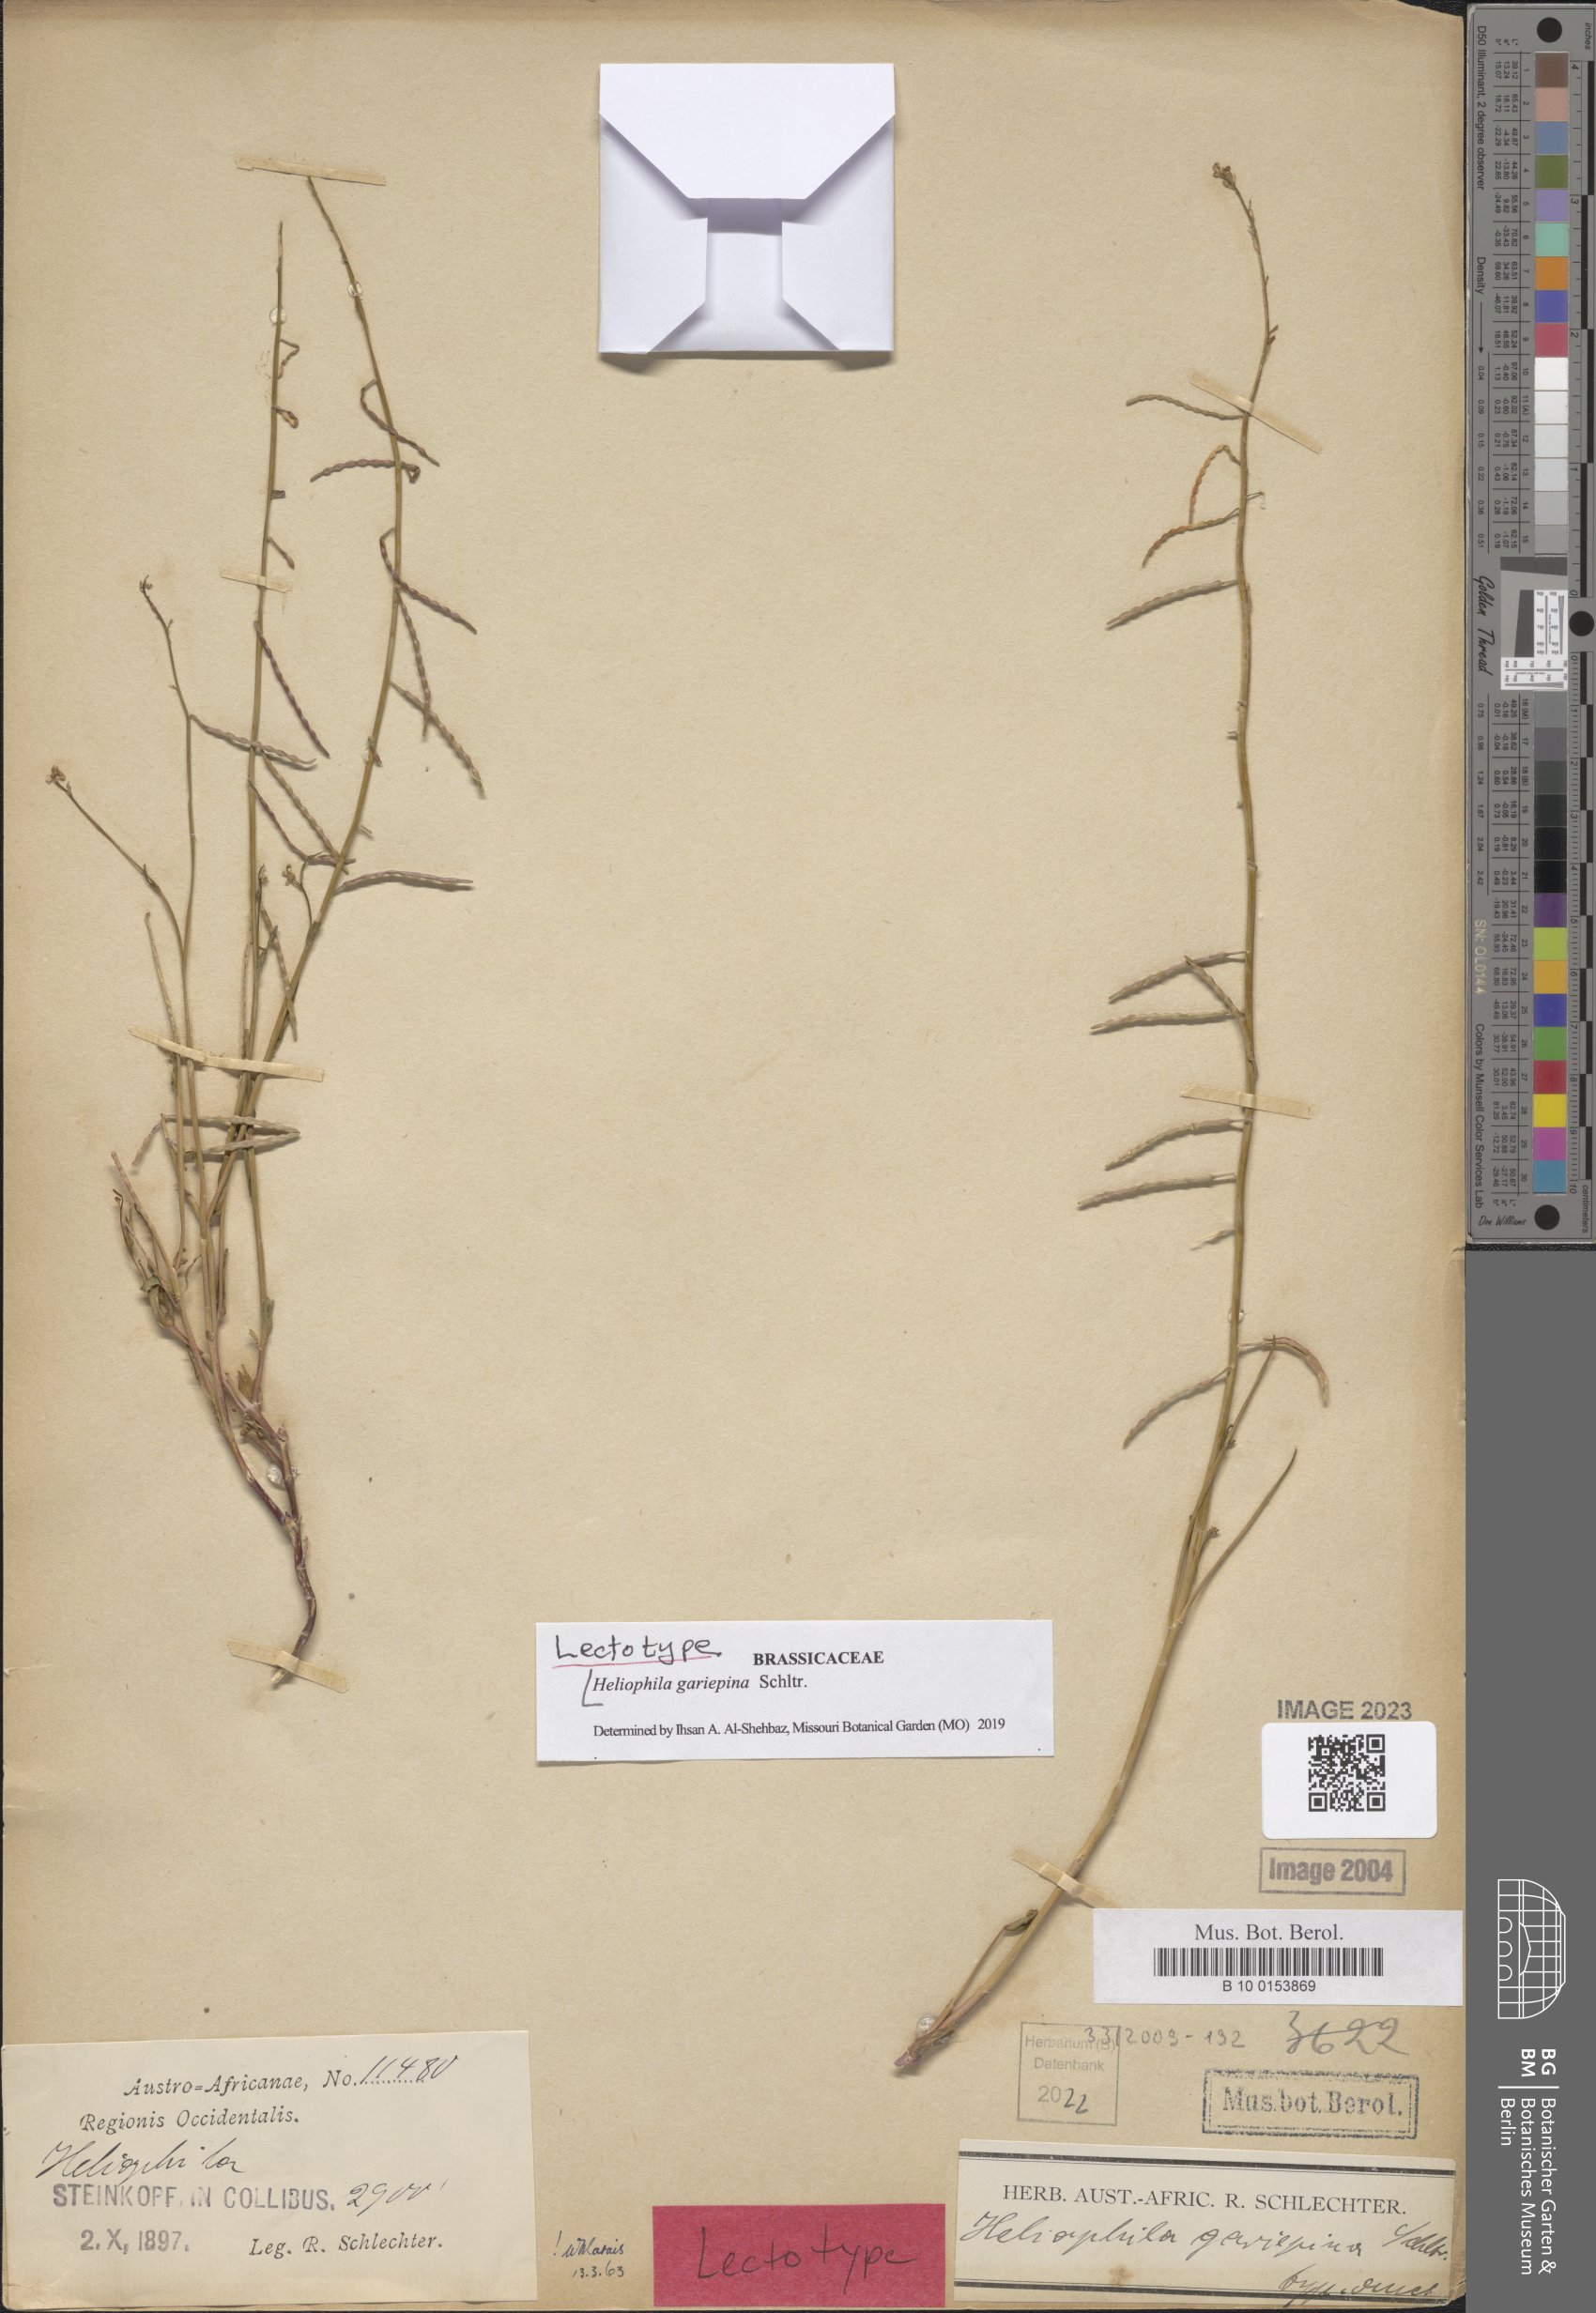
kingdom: Plantae
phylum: Tracheophyta
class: Magnoliopsida
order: Brassicales
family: Brassicaceae
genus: Heliophila
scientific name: Heliophila gariepina
